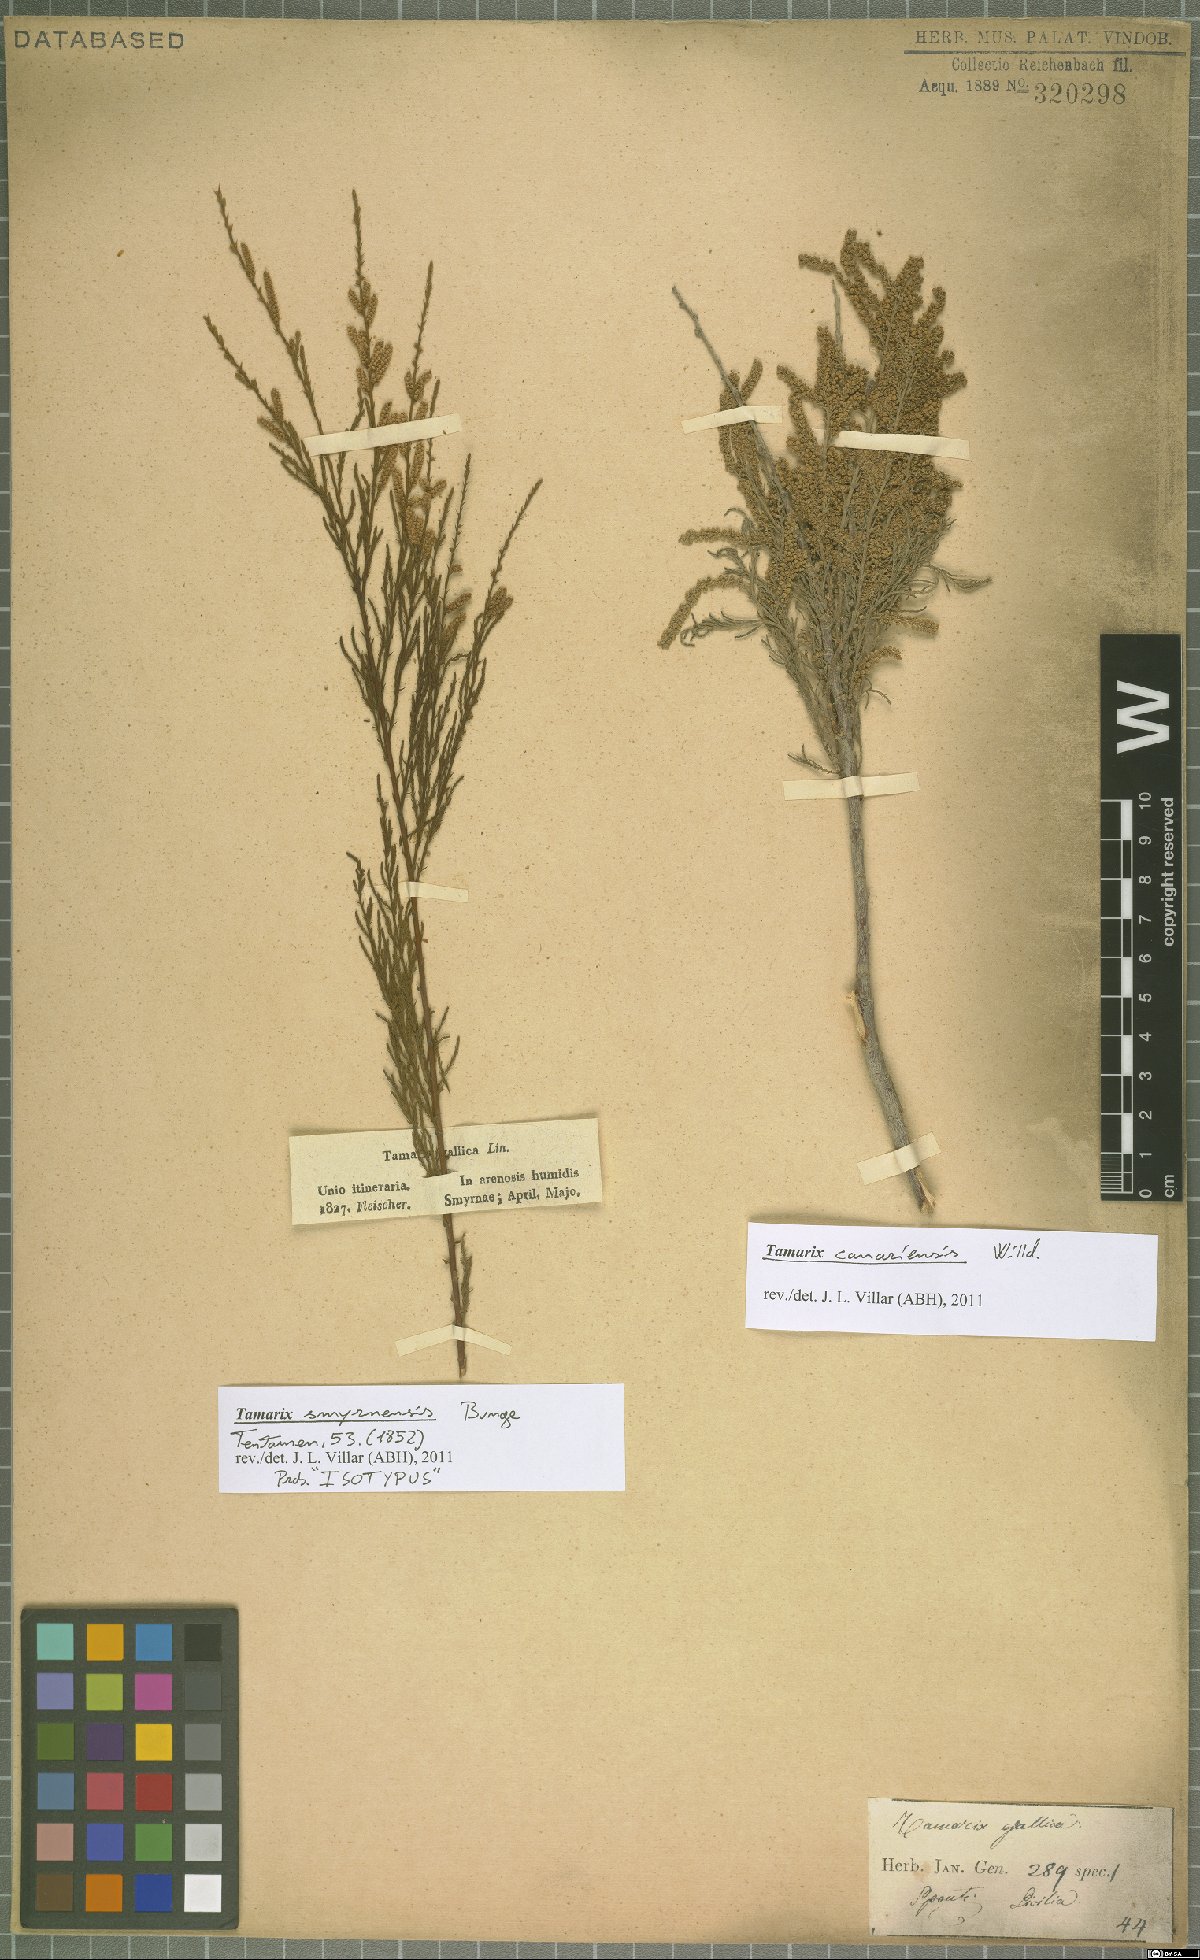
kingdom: Plantae
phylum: Tracheophyta
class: Magnoliopsida
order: Caryophyllales
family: Tamaricaceae
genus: Tamarix
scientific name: Tamarix smyrnensis
